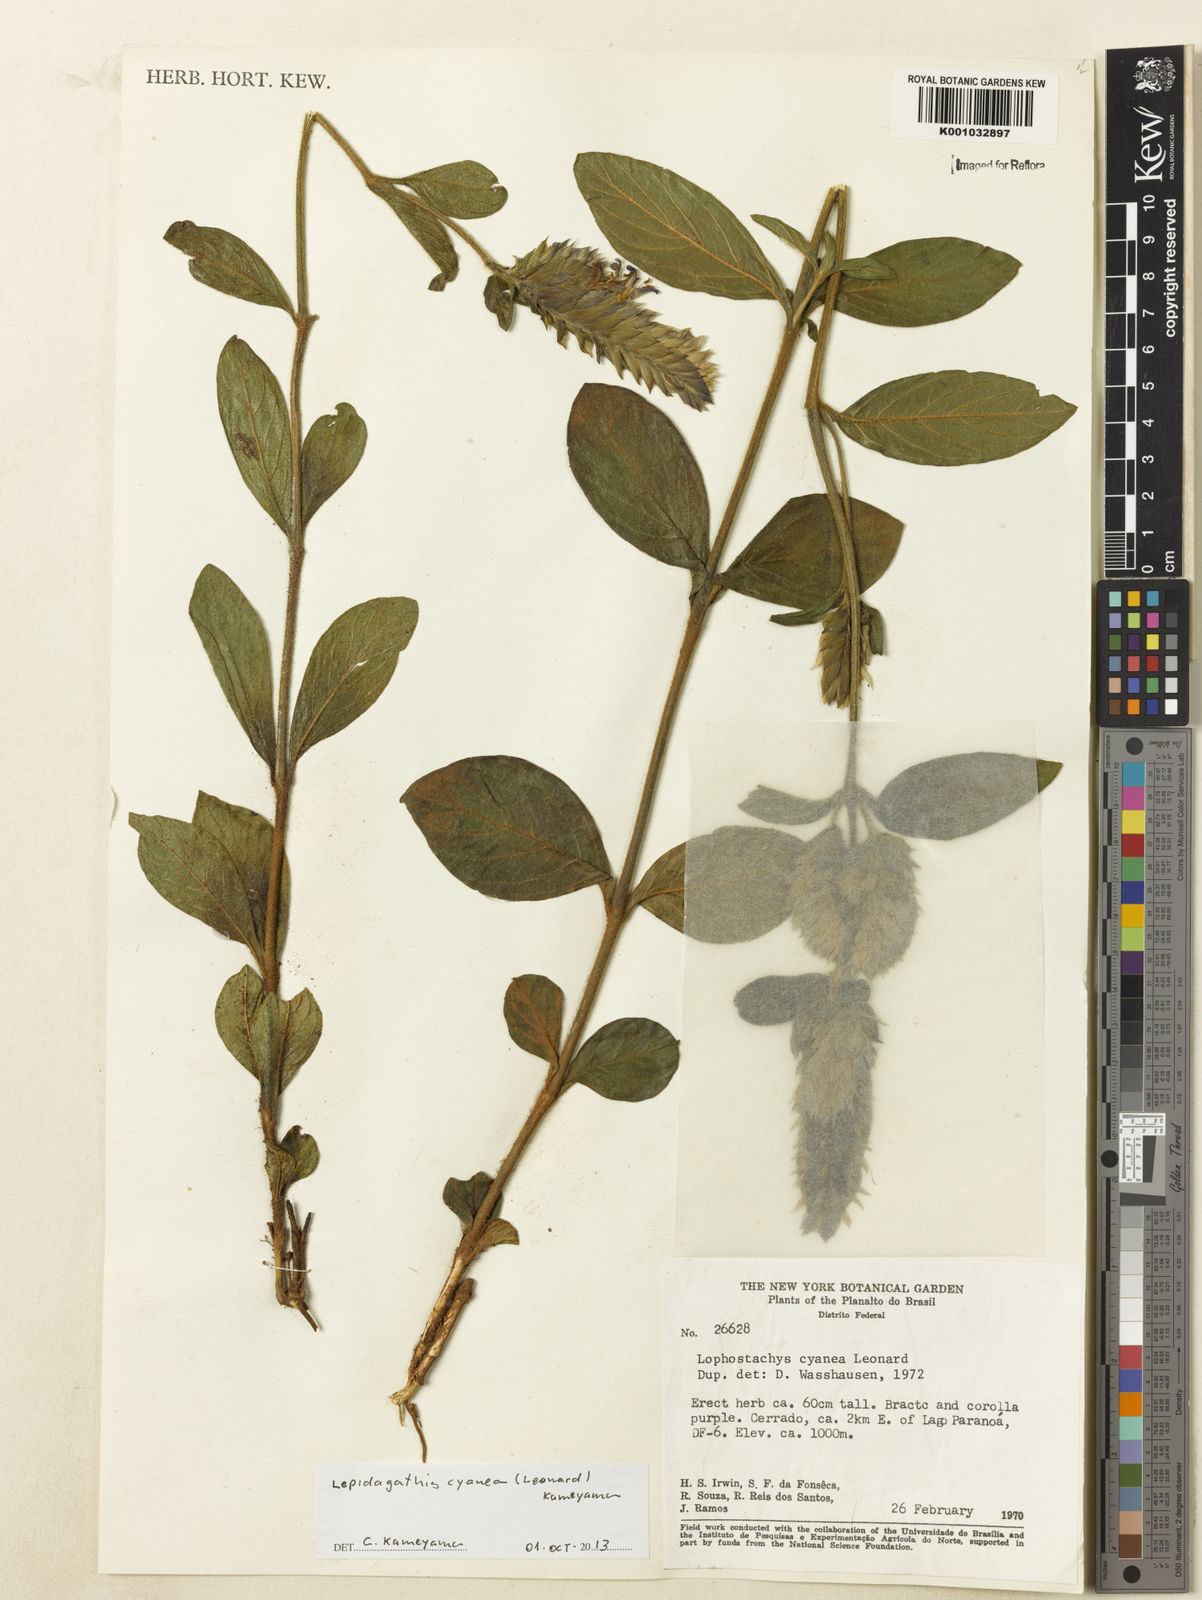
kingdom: Plantae
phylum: Tracheophyta
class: Magnoliopsida
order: Lamiales
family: Acanthaceae
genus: Lepidagathis
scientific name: Lepidagathis cyanea
